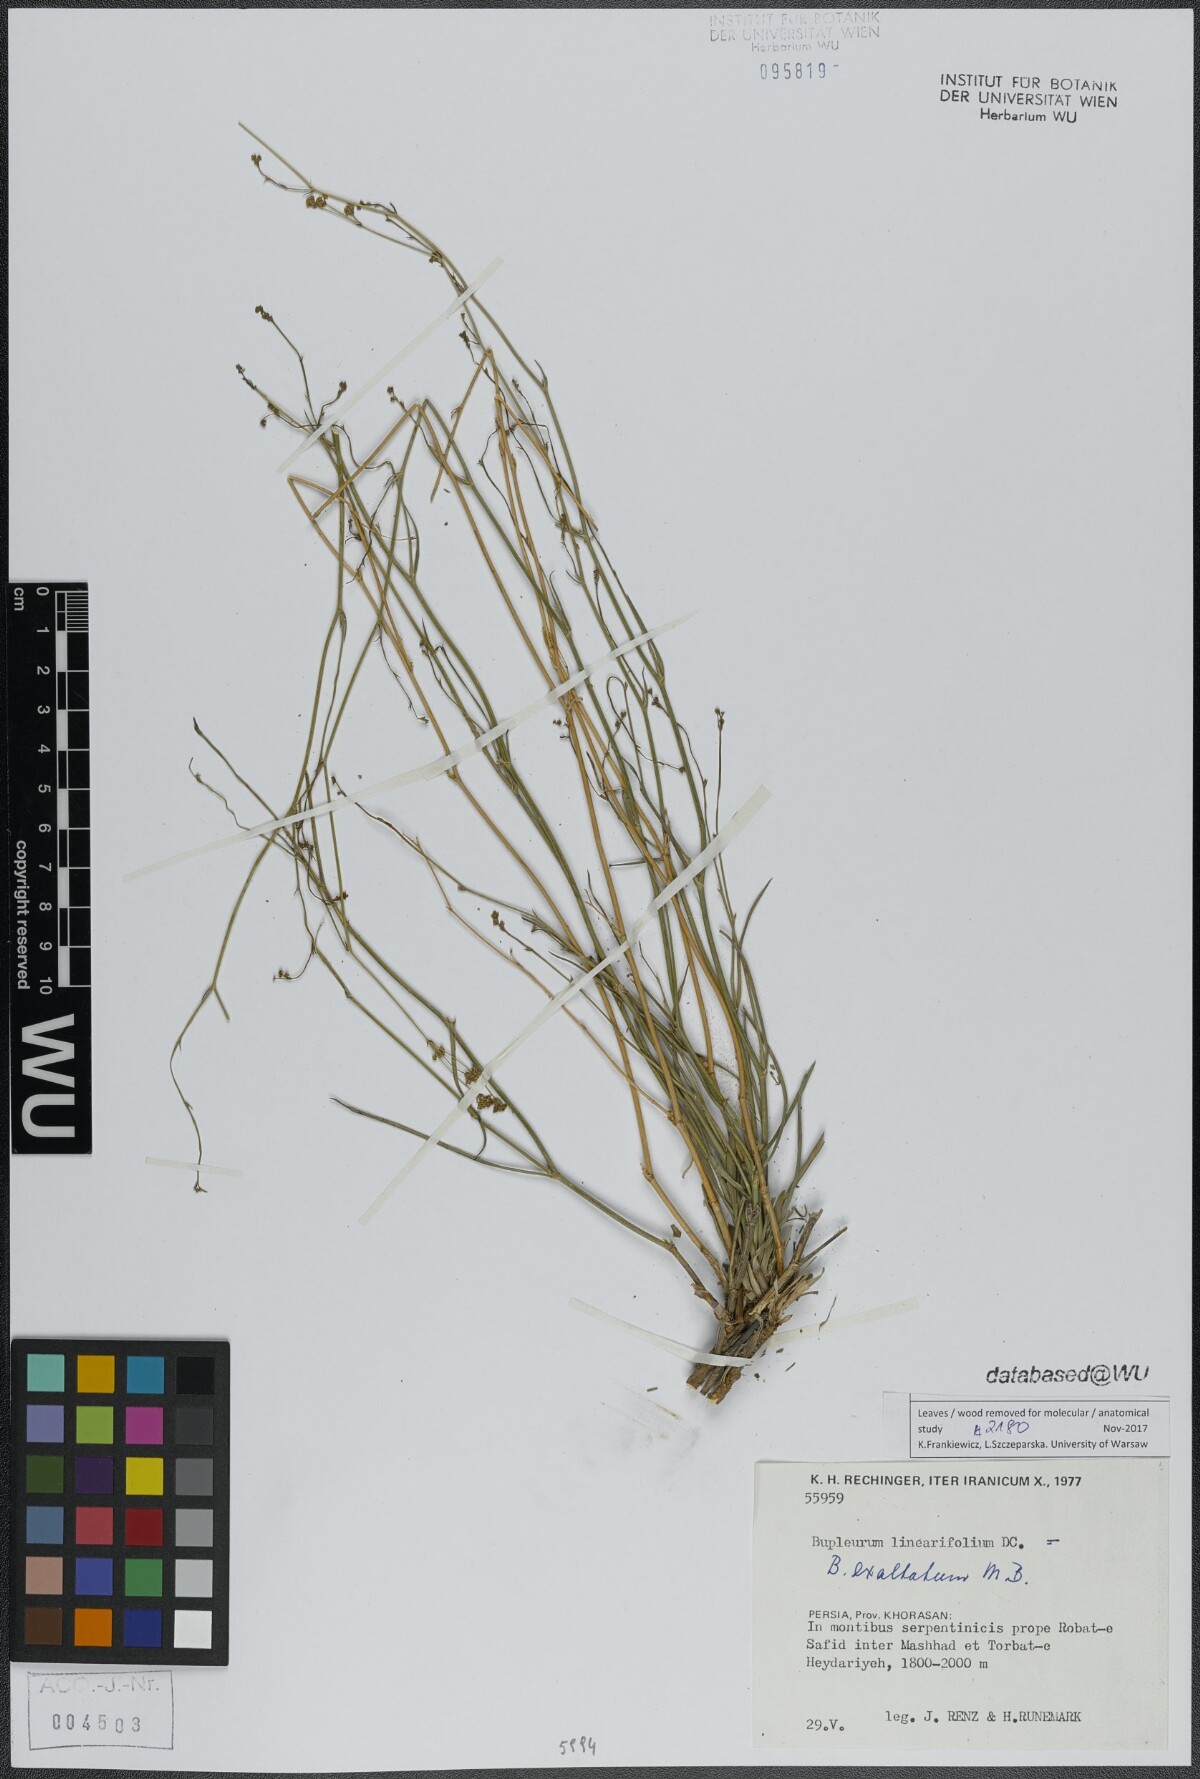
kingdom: Plantae
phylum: Tracheophyta
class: Magnoliopsida
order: Apiales
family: Apiaceae
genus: Bupleurum
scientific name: Bupleurum exaltatum
